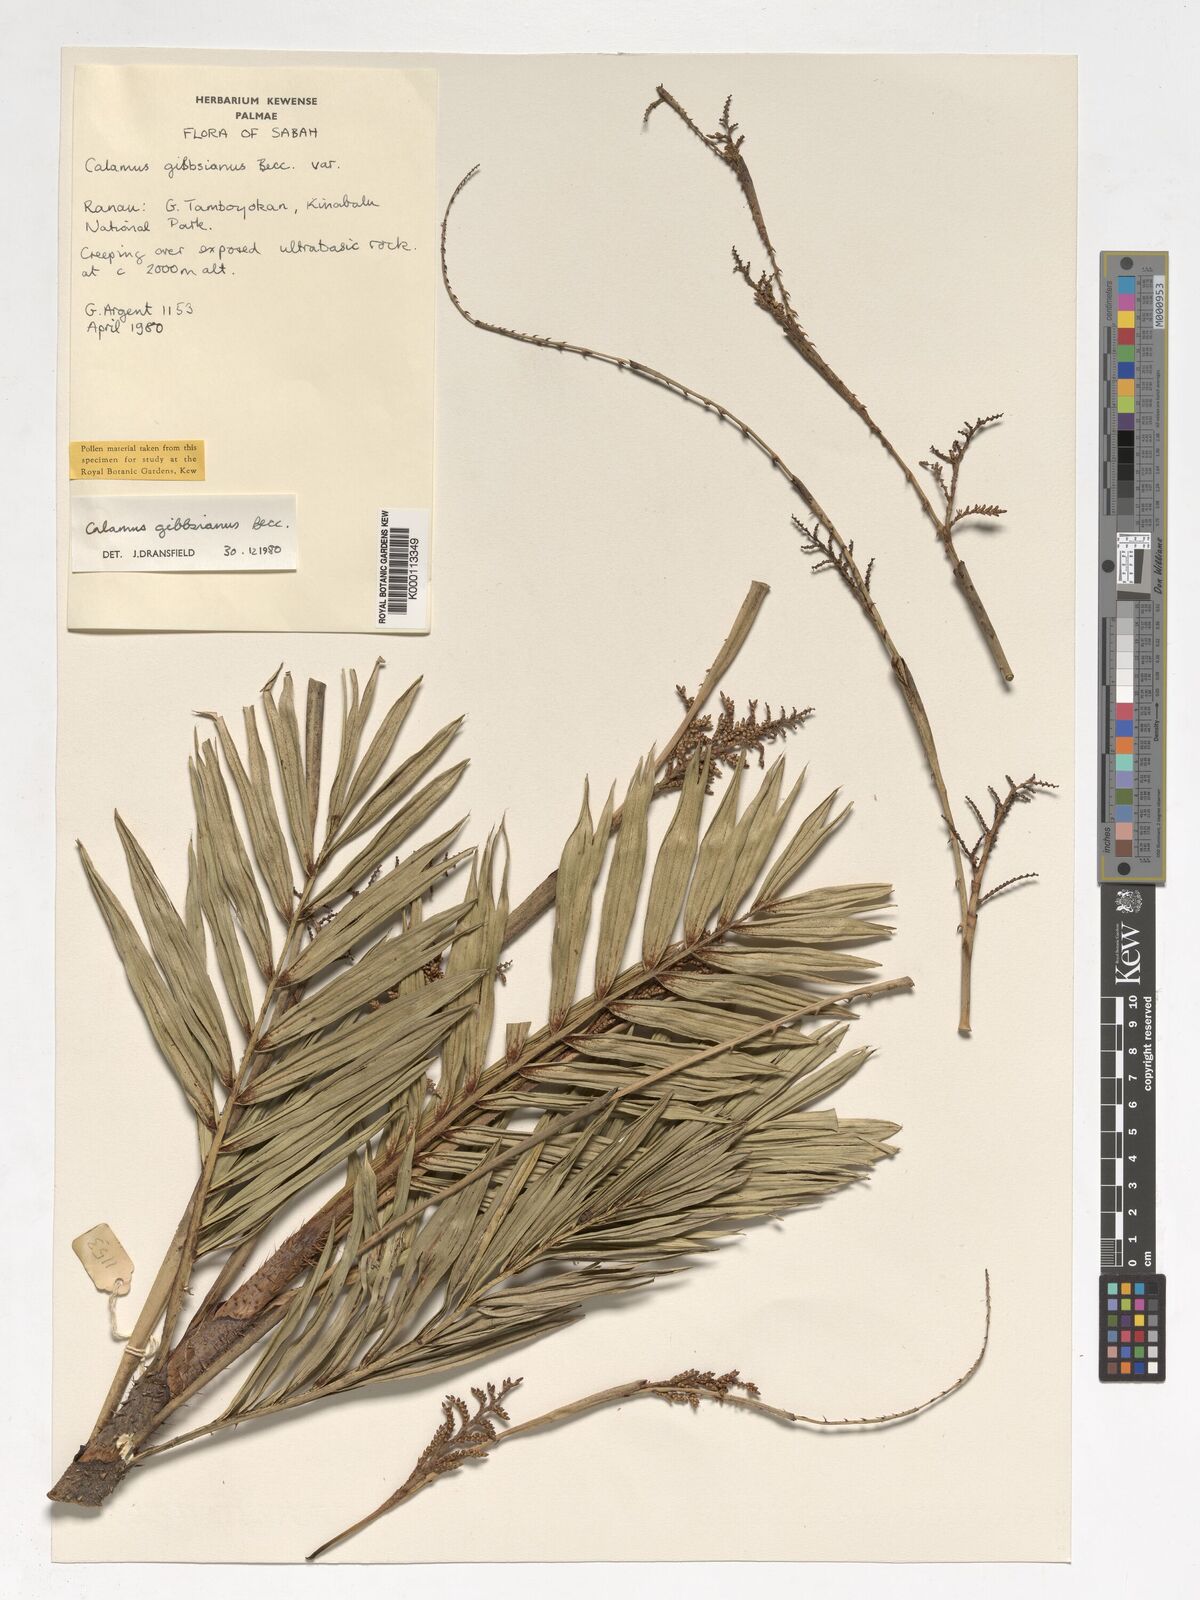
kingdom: Plantae
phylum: Tracheophyta
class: Liliopsida
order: Arecales
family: Arecaceae
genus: Calamus
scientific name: Calamus gibbsianus
